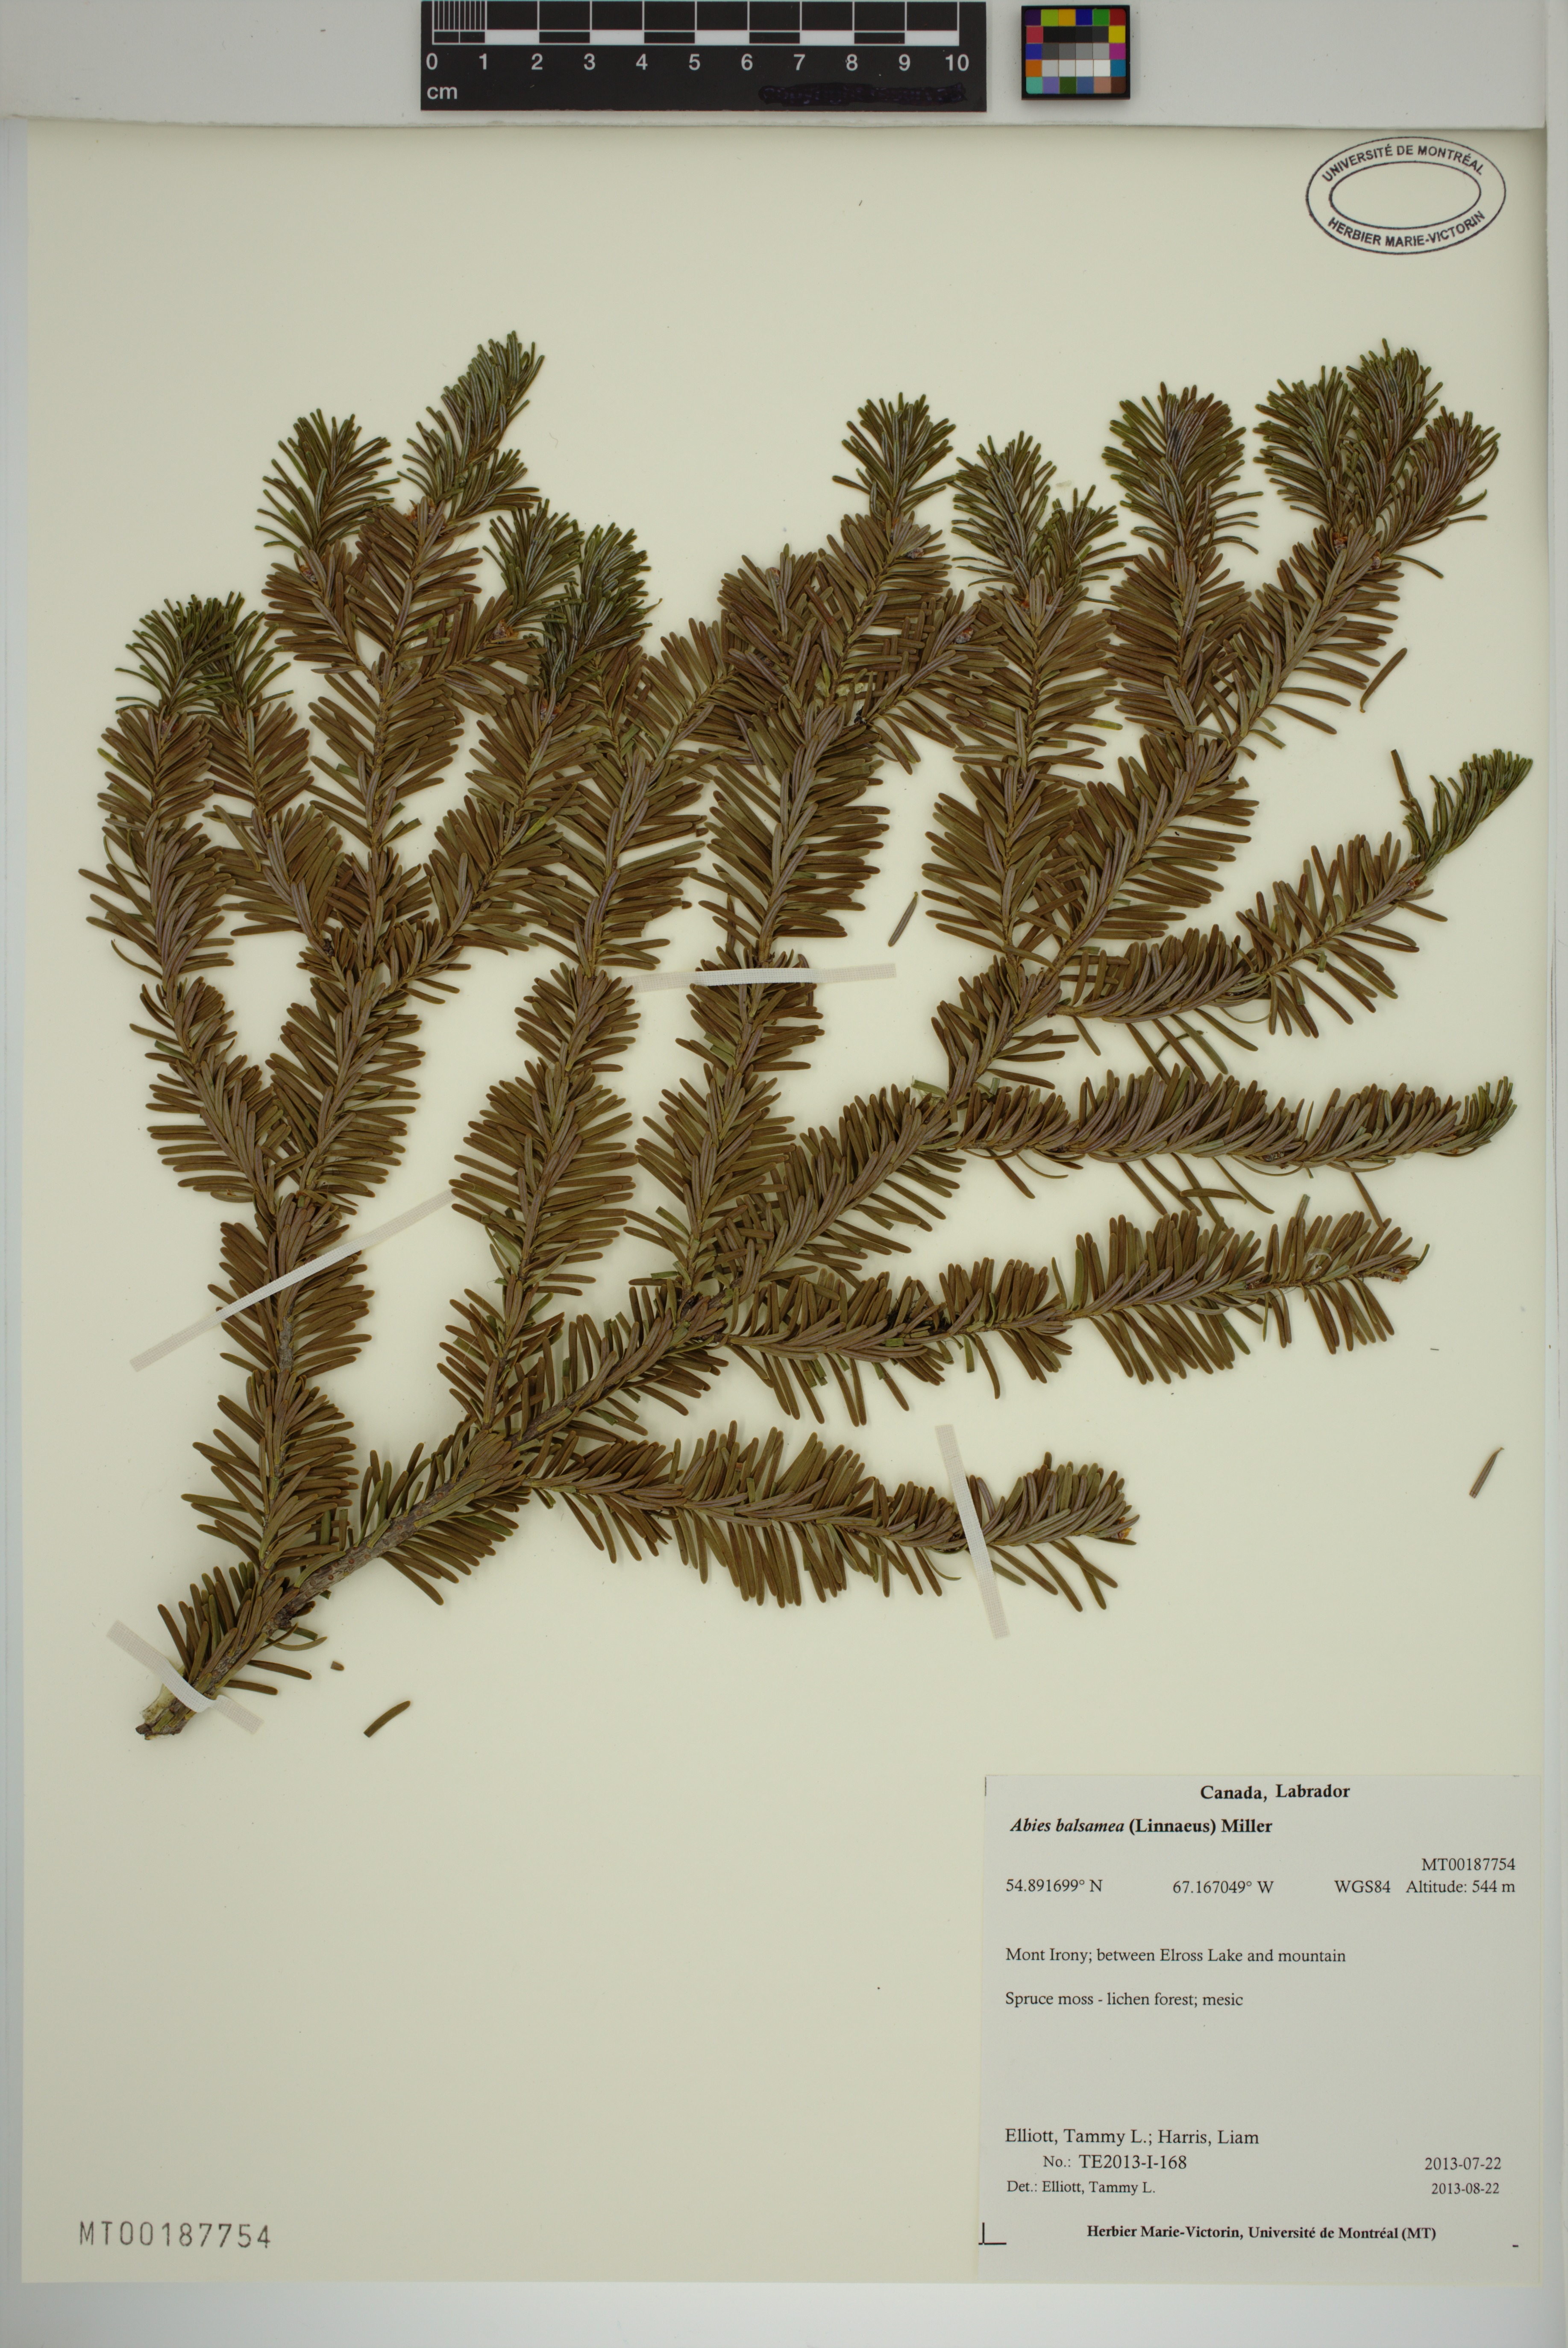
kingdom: Plantae
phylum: Tracheophyta
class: Pinopsida
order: Pinales
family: Pinaceae
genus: Abies
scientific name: Abies balsamea
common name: Balsam fir
